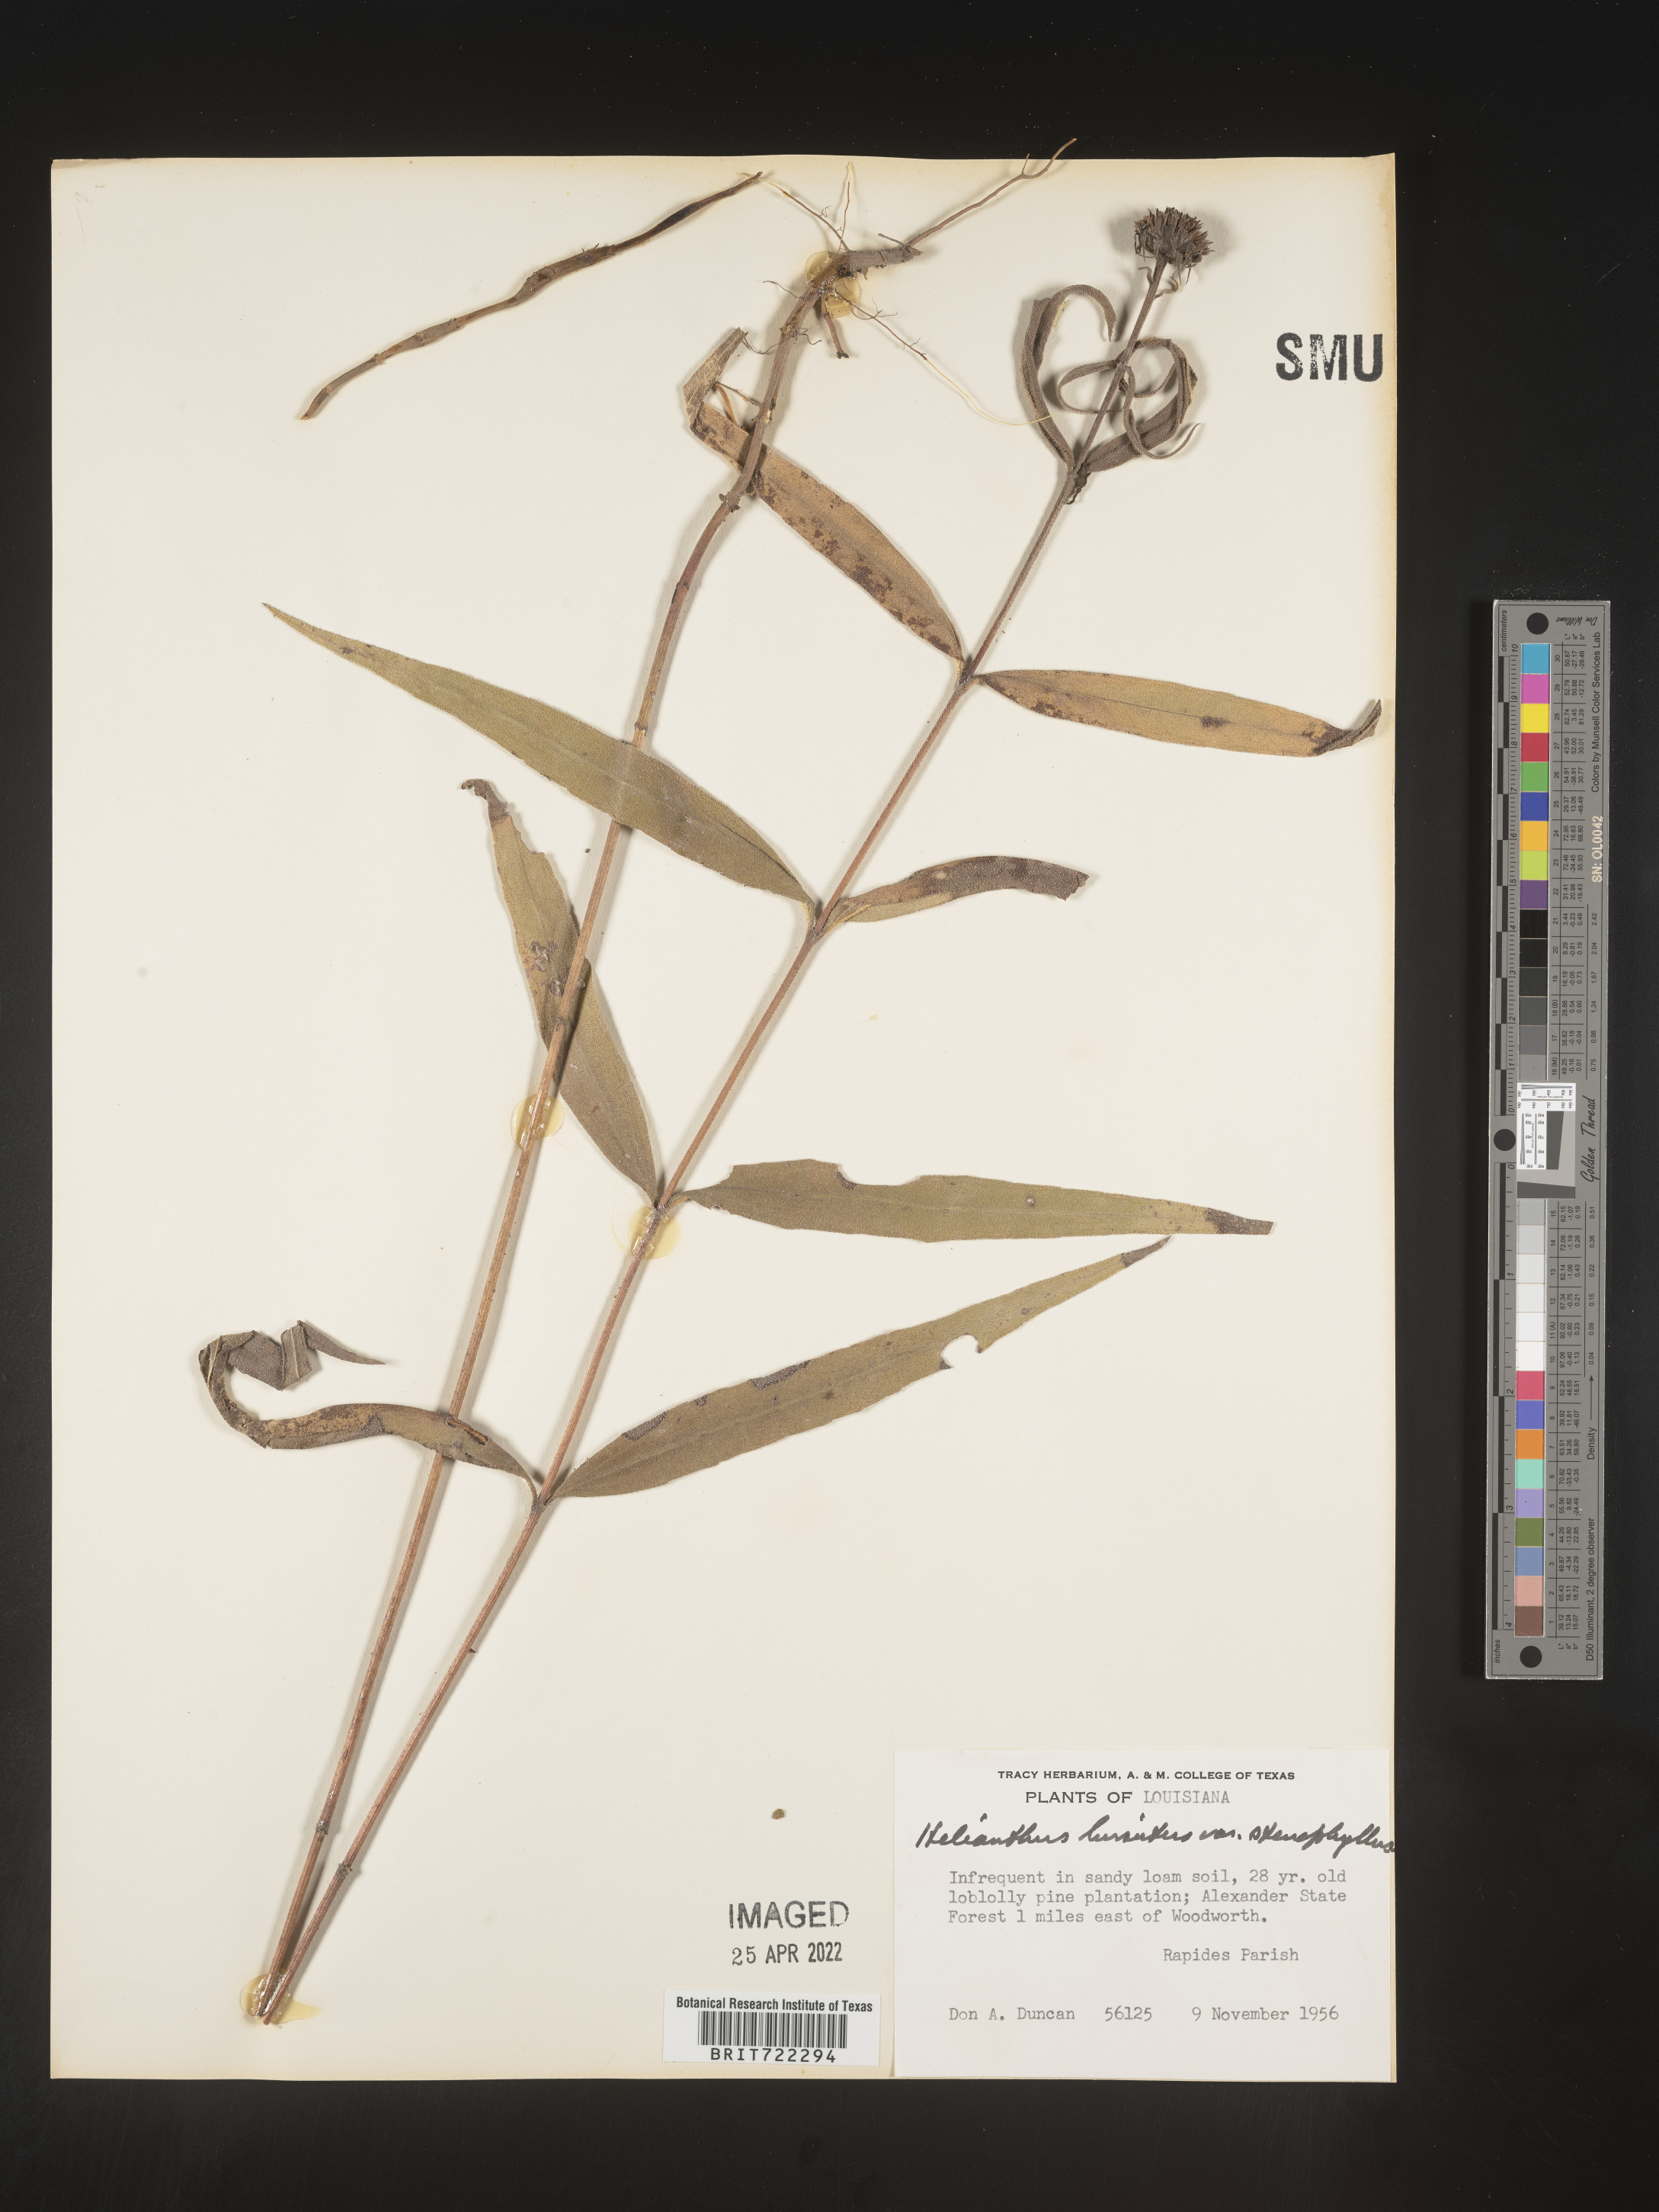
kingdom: Plantae
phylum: Tracheophyta
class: Magnoliopsida
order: Asterales
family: Asteraceae
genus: Helianthus
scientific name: Helianthus hirsutus
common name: Hairy sunflower
